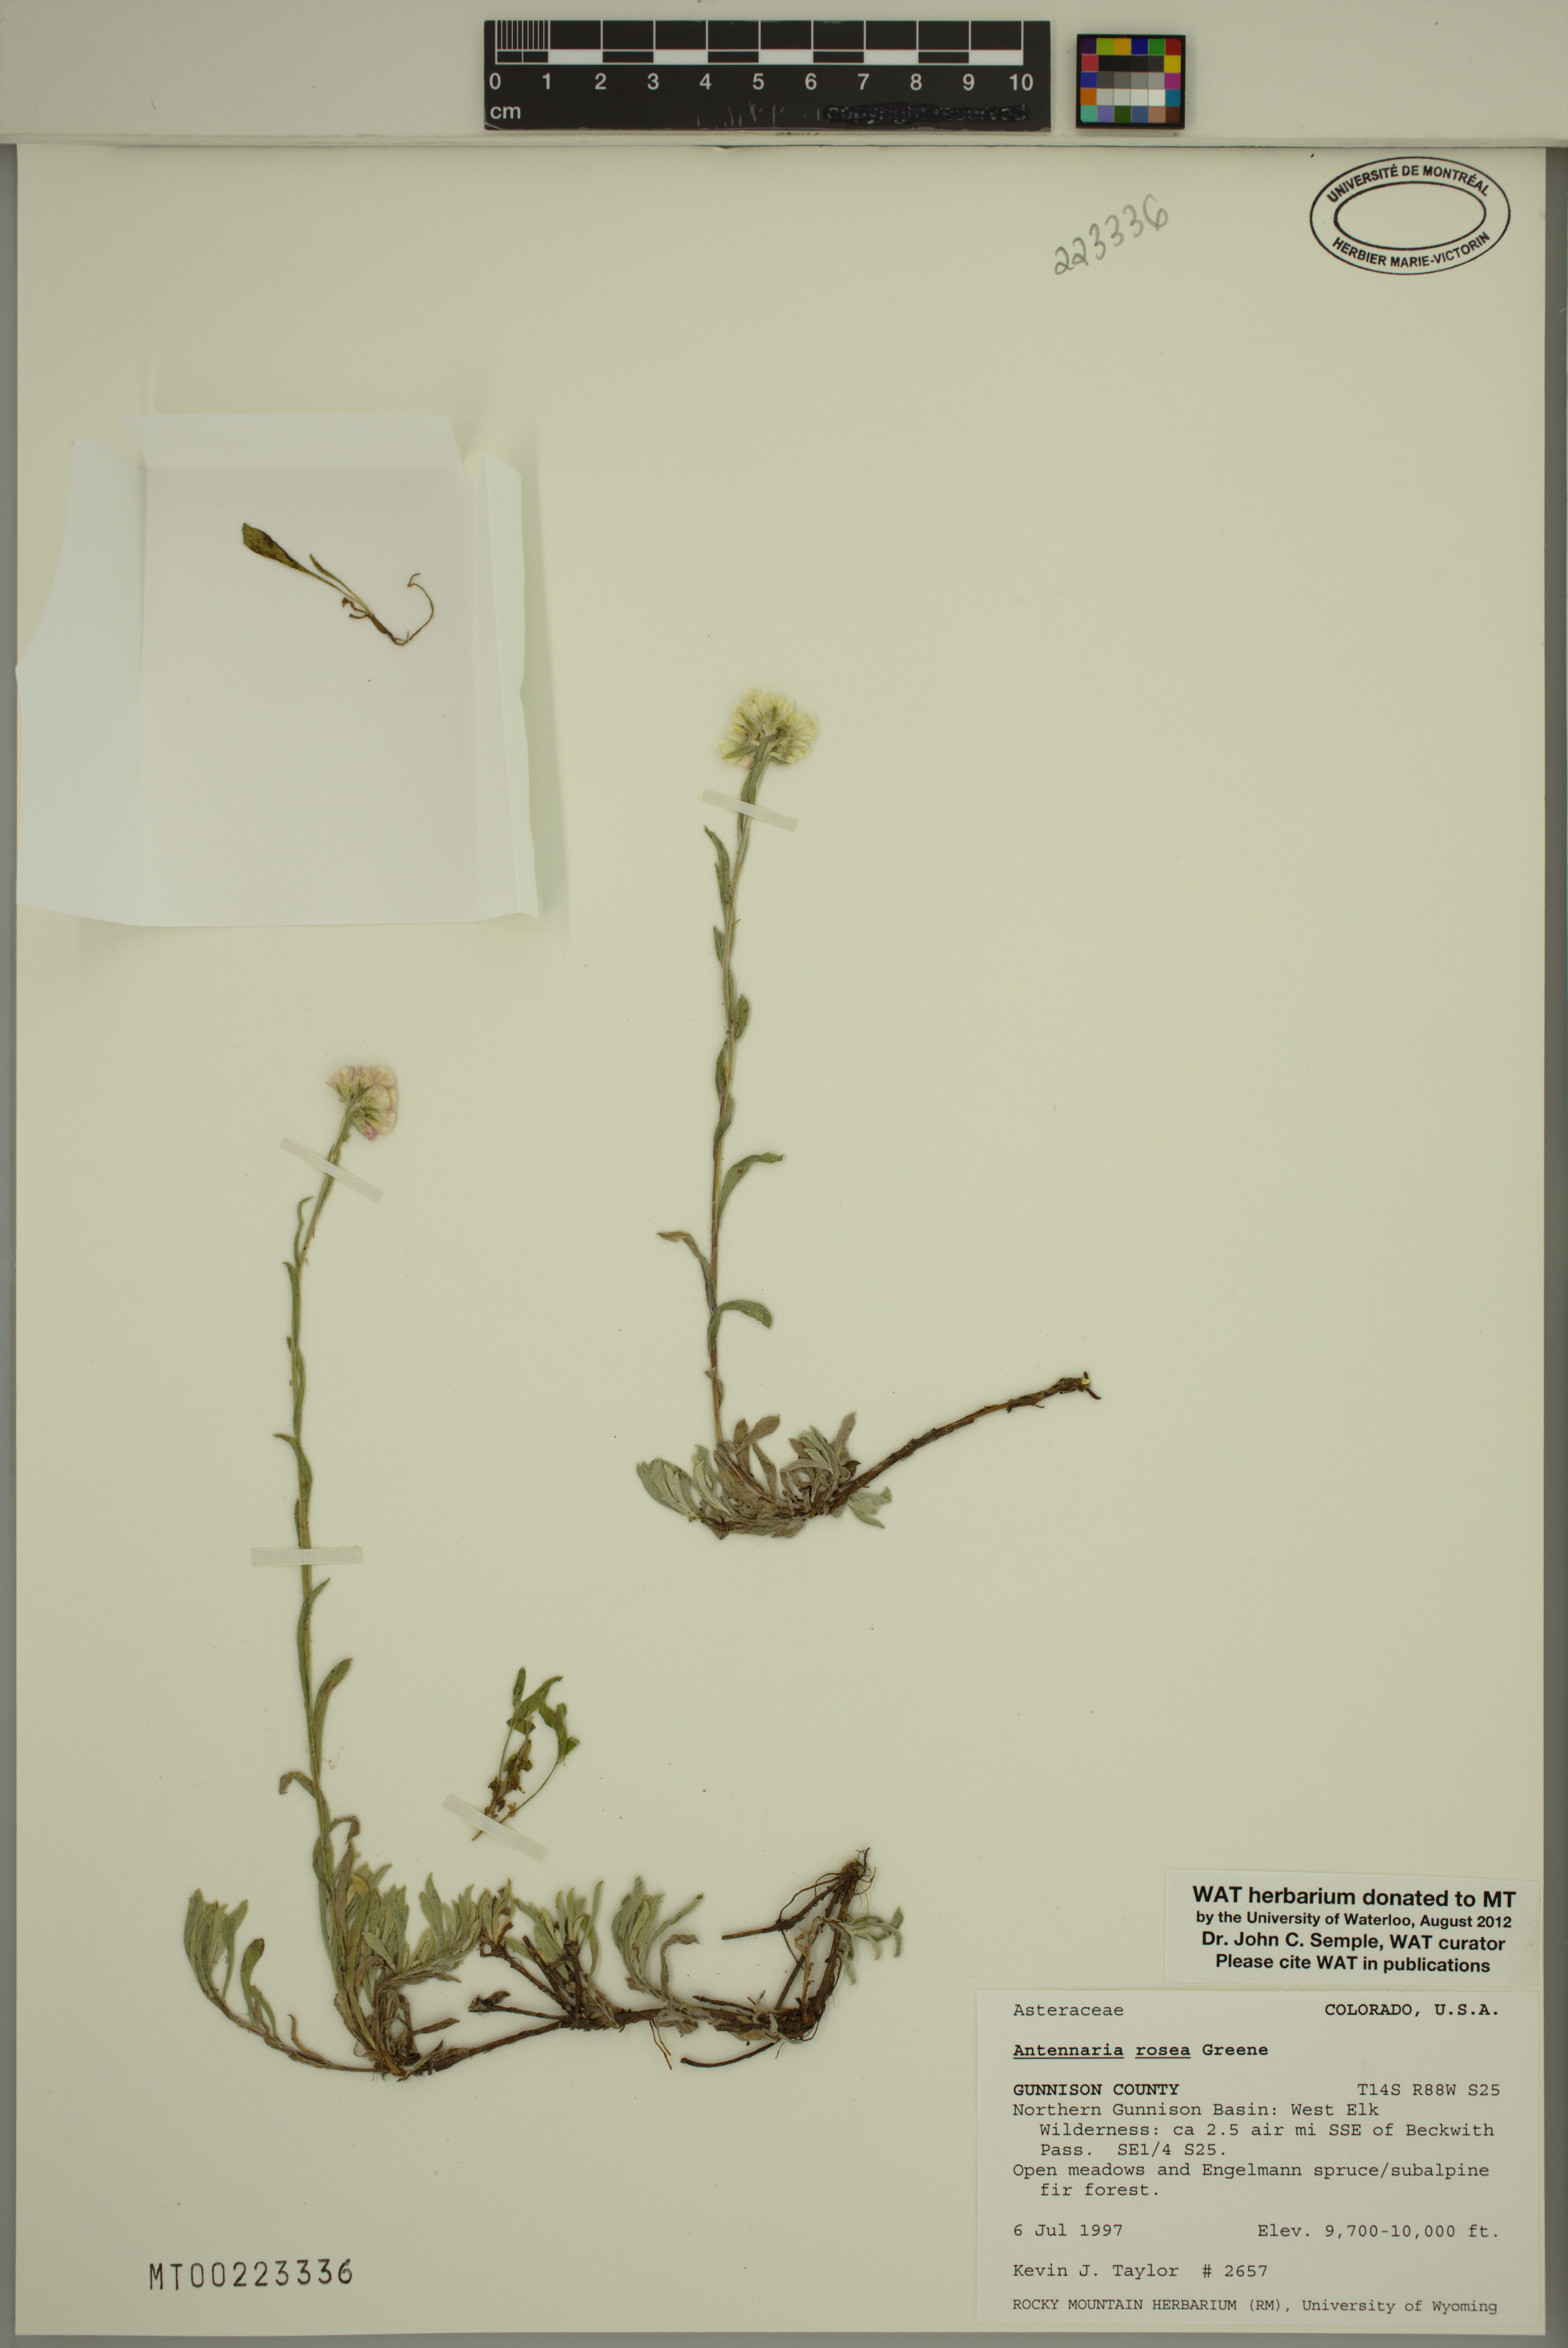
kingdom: Plantae
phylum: Tracheophyta
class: Magnoliopsida
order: Asterales
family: Asteraceae
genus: Antennaria
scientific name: Antennaria rosea
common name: Rosy pussytoes
